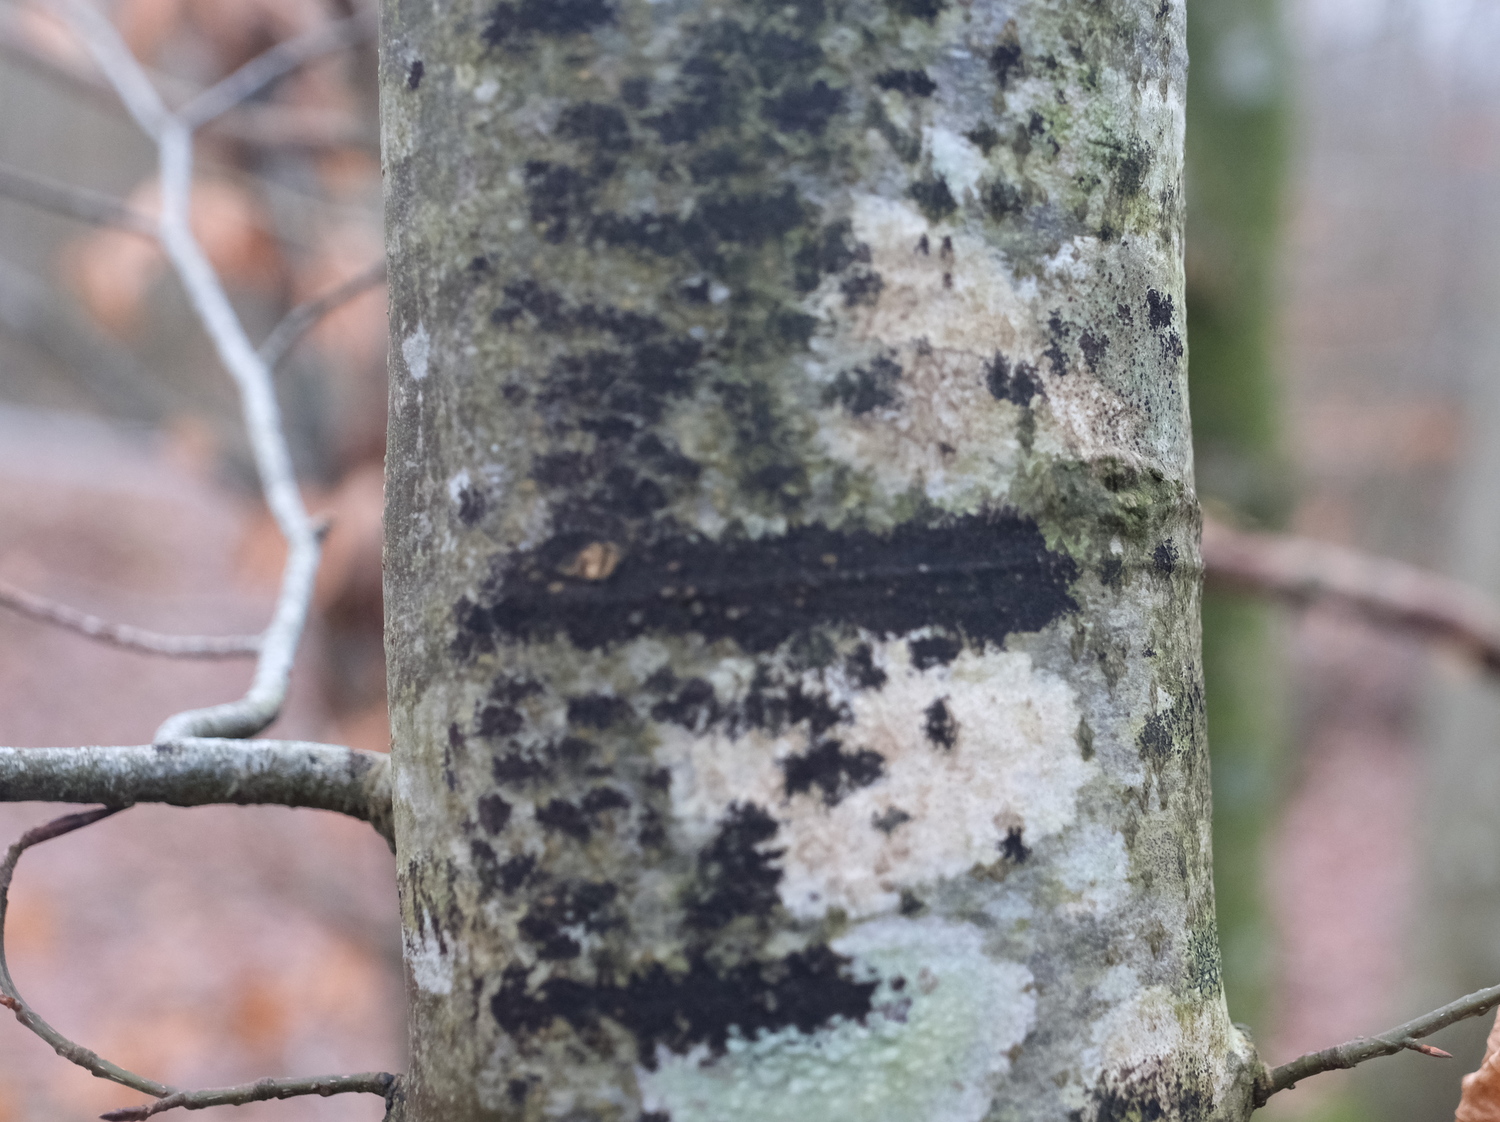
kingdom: Fungi
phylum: Ascomycota
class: Leotiomycetes
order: Rhytismatales
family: Ascodichaenaceae
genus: Ascodichaena
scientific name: Ascodichaena rugosa
